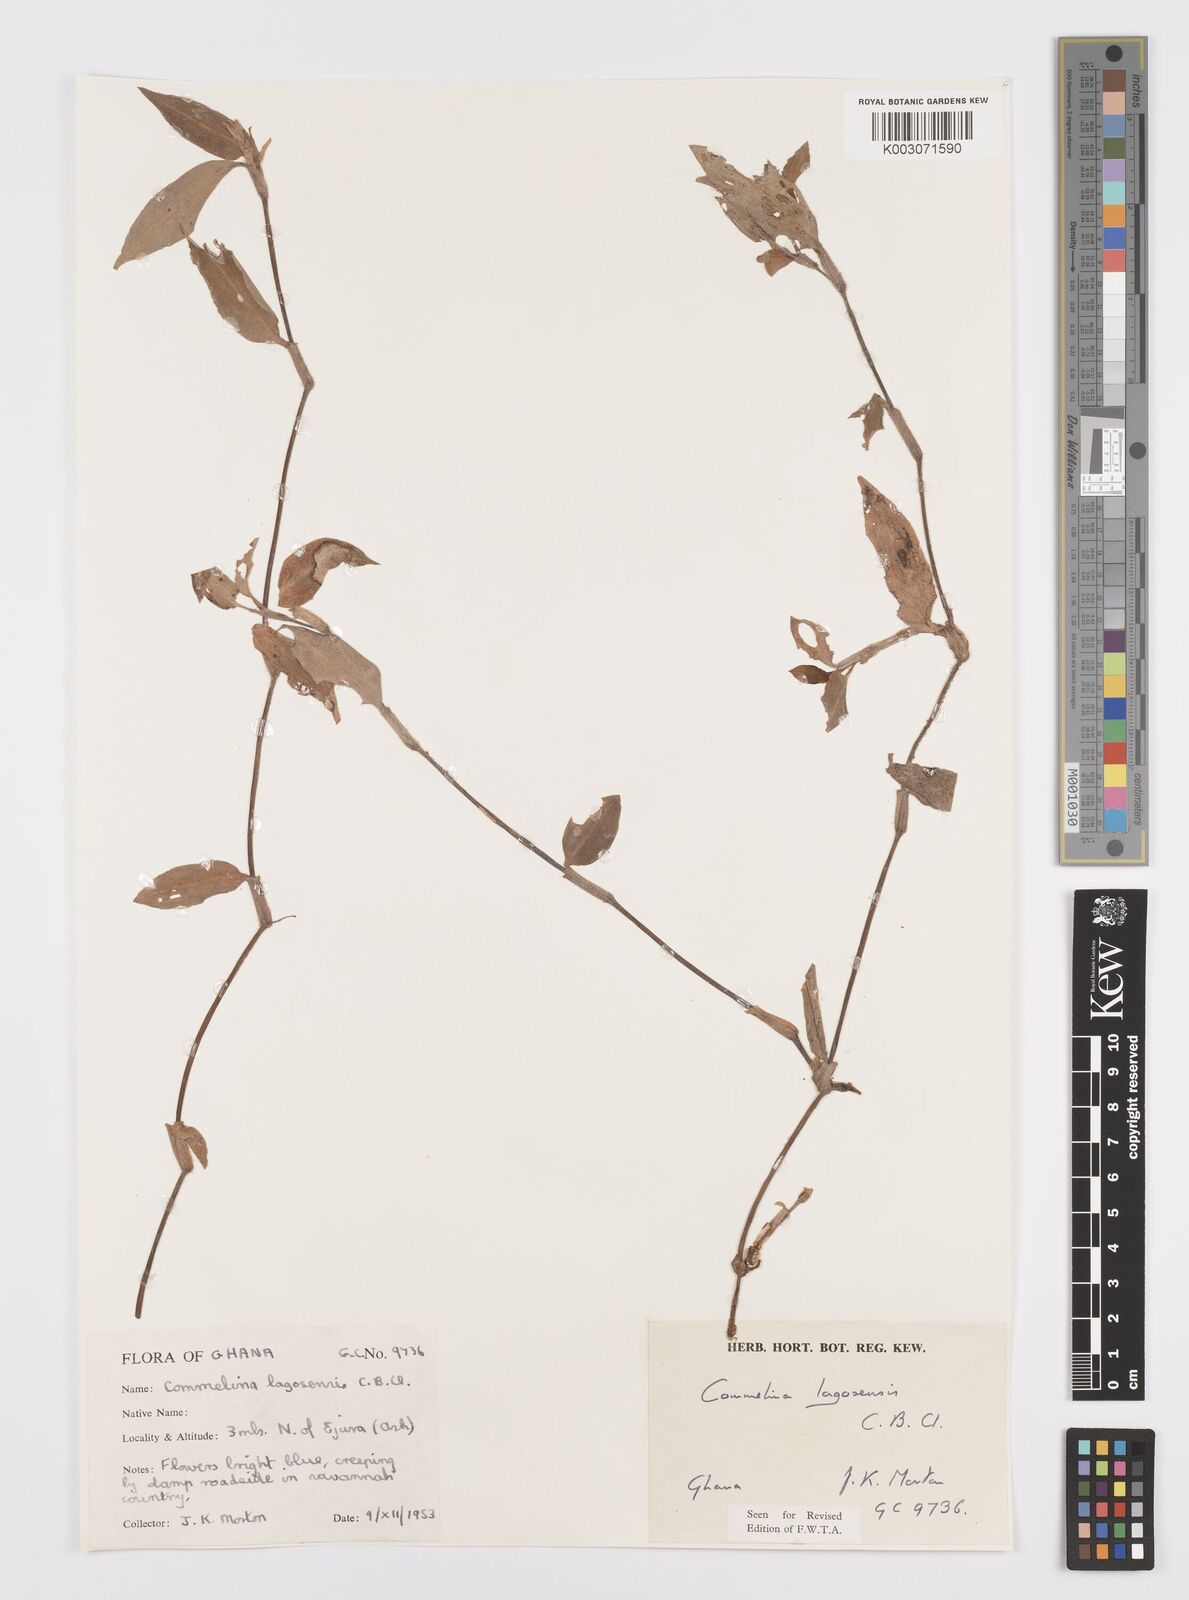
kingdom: Plantae
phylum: Tracheophyta
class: Liliopsida
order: Commelinales
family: Commelinaceae
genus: Commelina
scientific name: Commelina bracteosa
